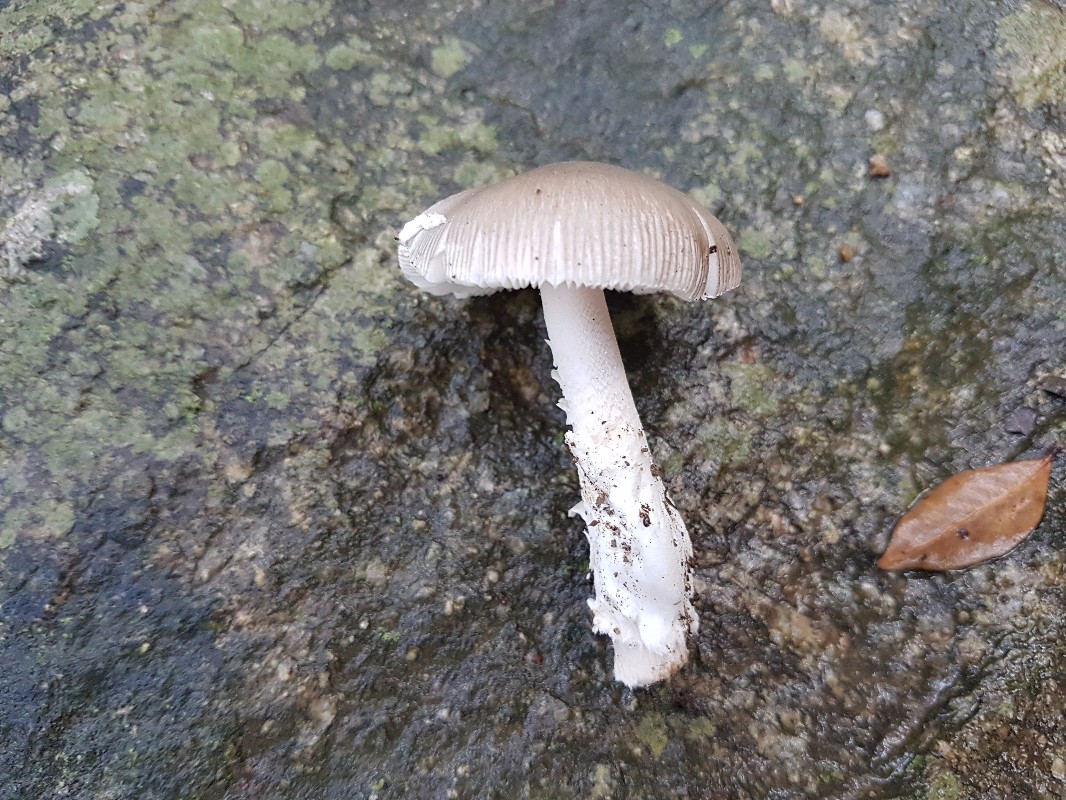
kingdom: Fungi
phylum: Basidiomycota
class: Agaricomycetes
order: Agaricales
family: Amanitaceae
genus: Amanita
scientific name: Amanita
